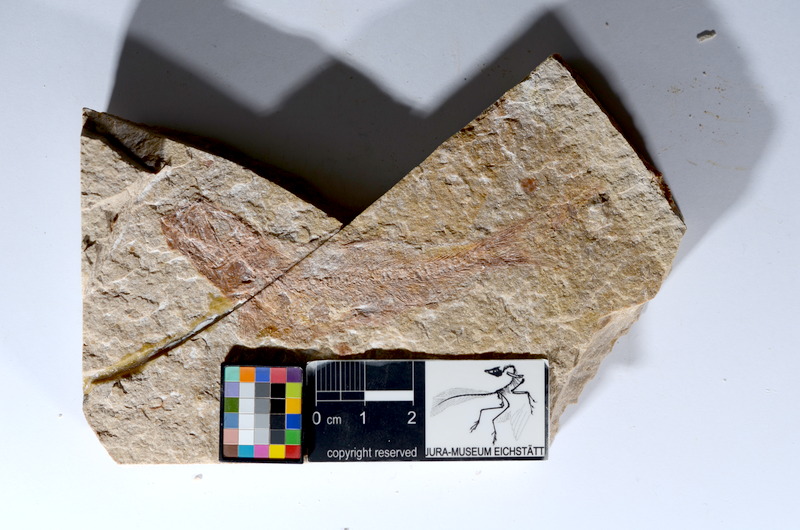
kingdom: Animalia
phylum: Chordata
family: Ascalaboidae
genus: Tharsis
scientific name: Tharsis dubius
